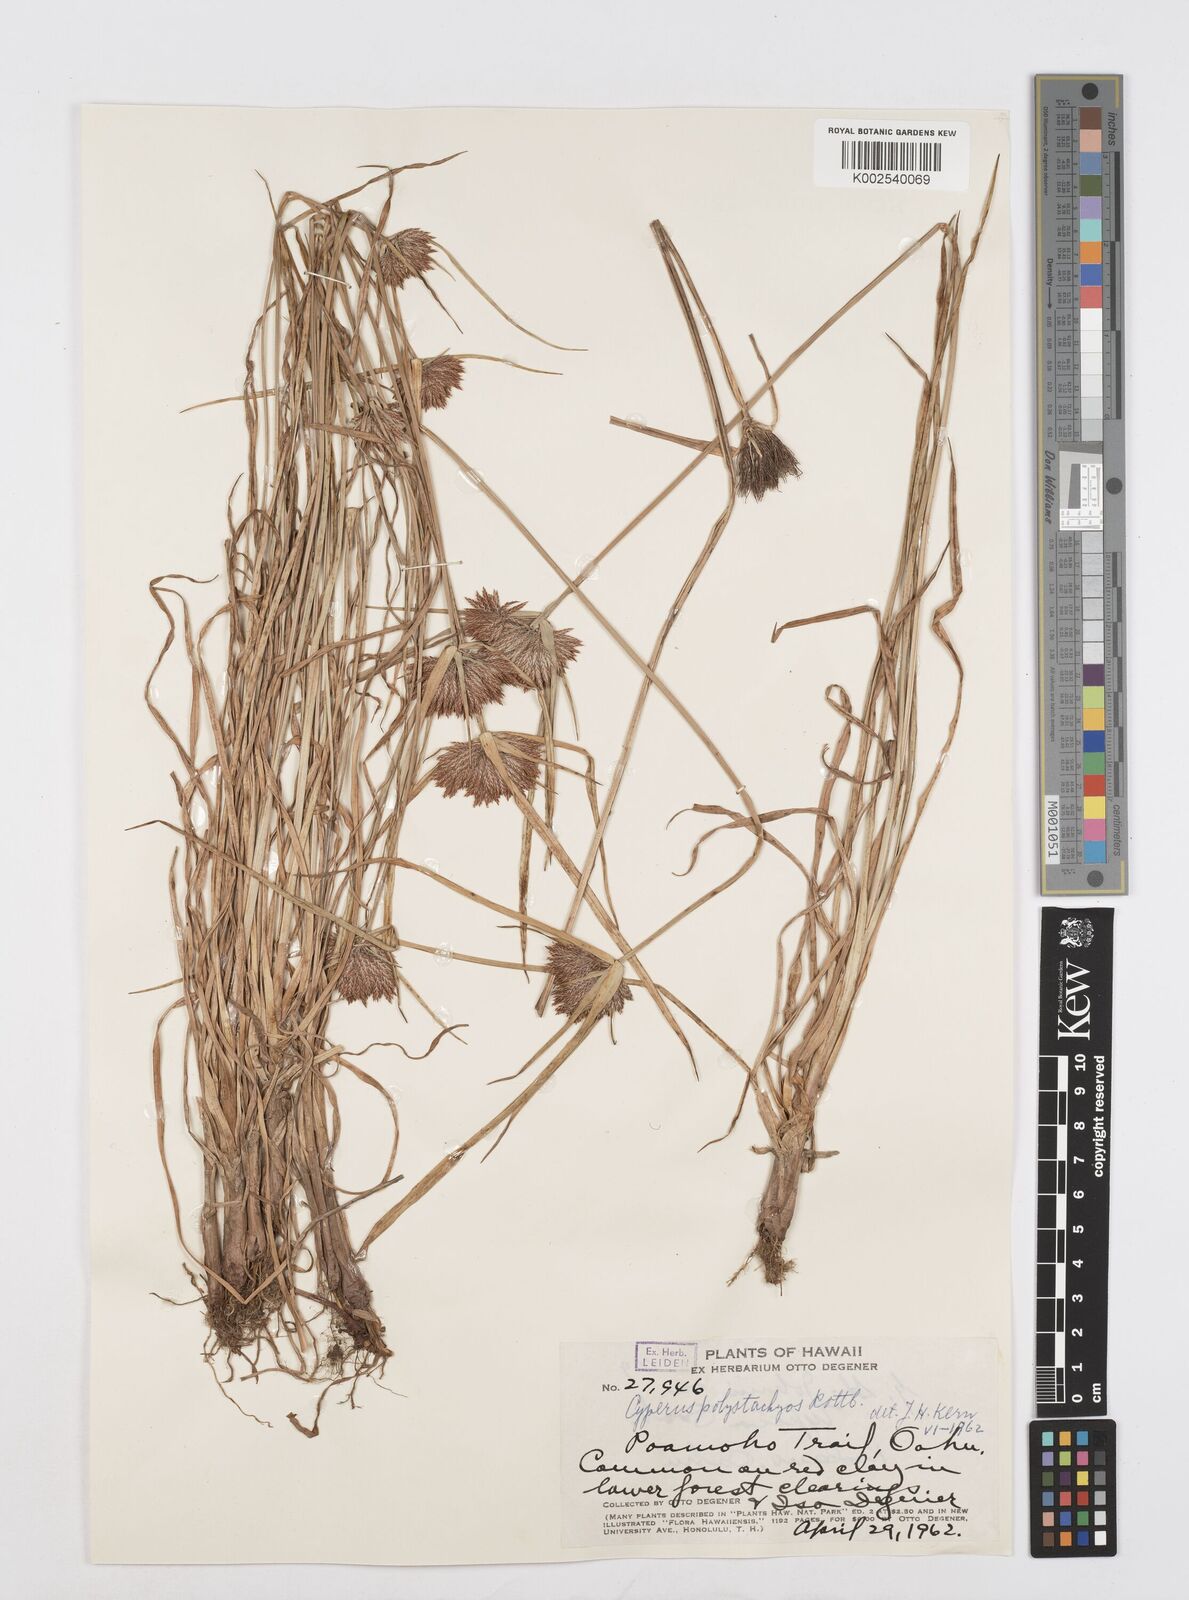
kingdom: Plantae
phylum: Tracheophyta
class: Liliopsida
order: Poales
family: Cyperaceae
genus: Cyperus
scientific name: Cyperus polystachyos
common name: Bunchy flat sedge
